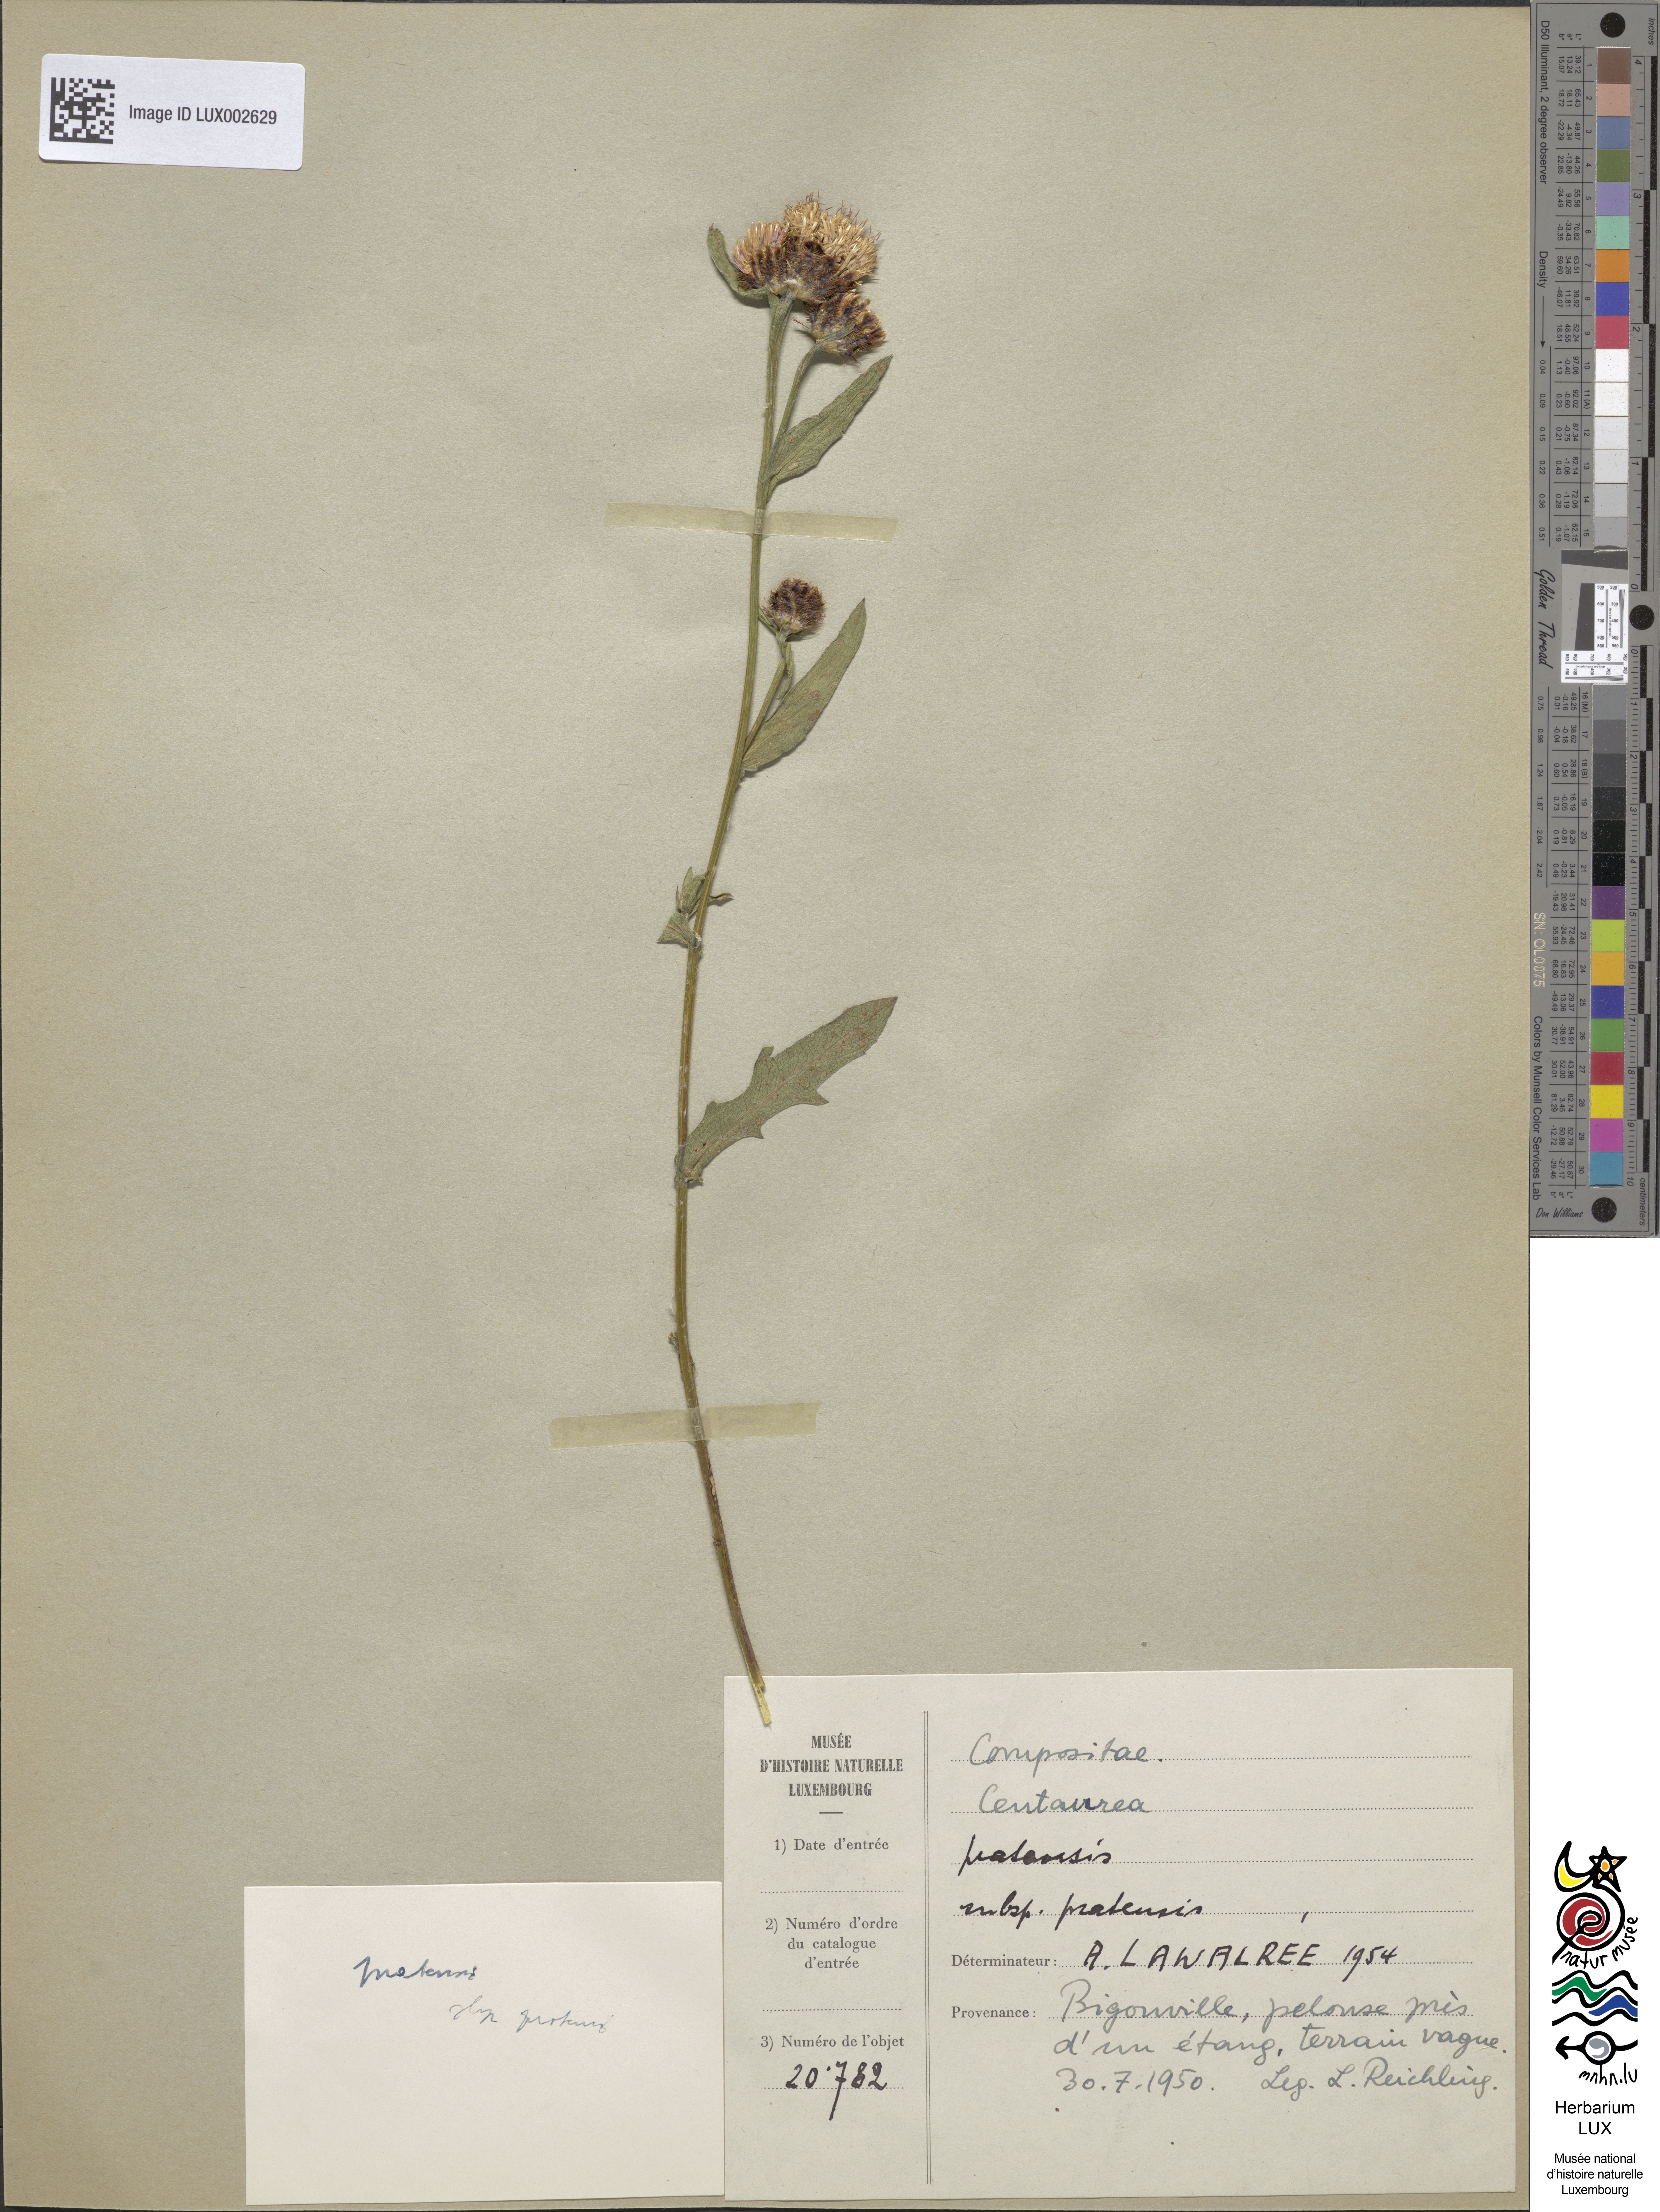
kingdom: Plantae
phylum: Tracheophyta
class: Magnoliopsida
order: Asterales
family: Asteraceae
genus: Centaurea
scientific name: Centaurea
